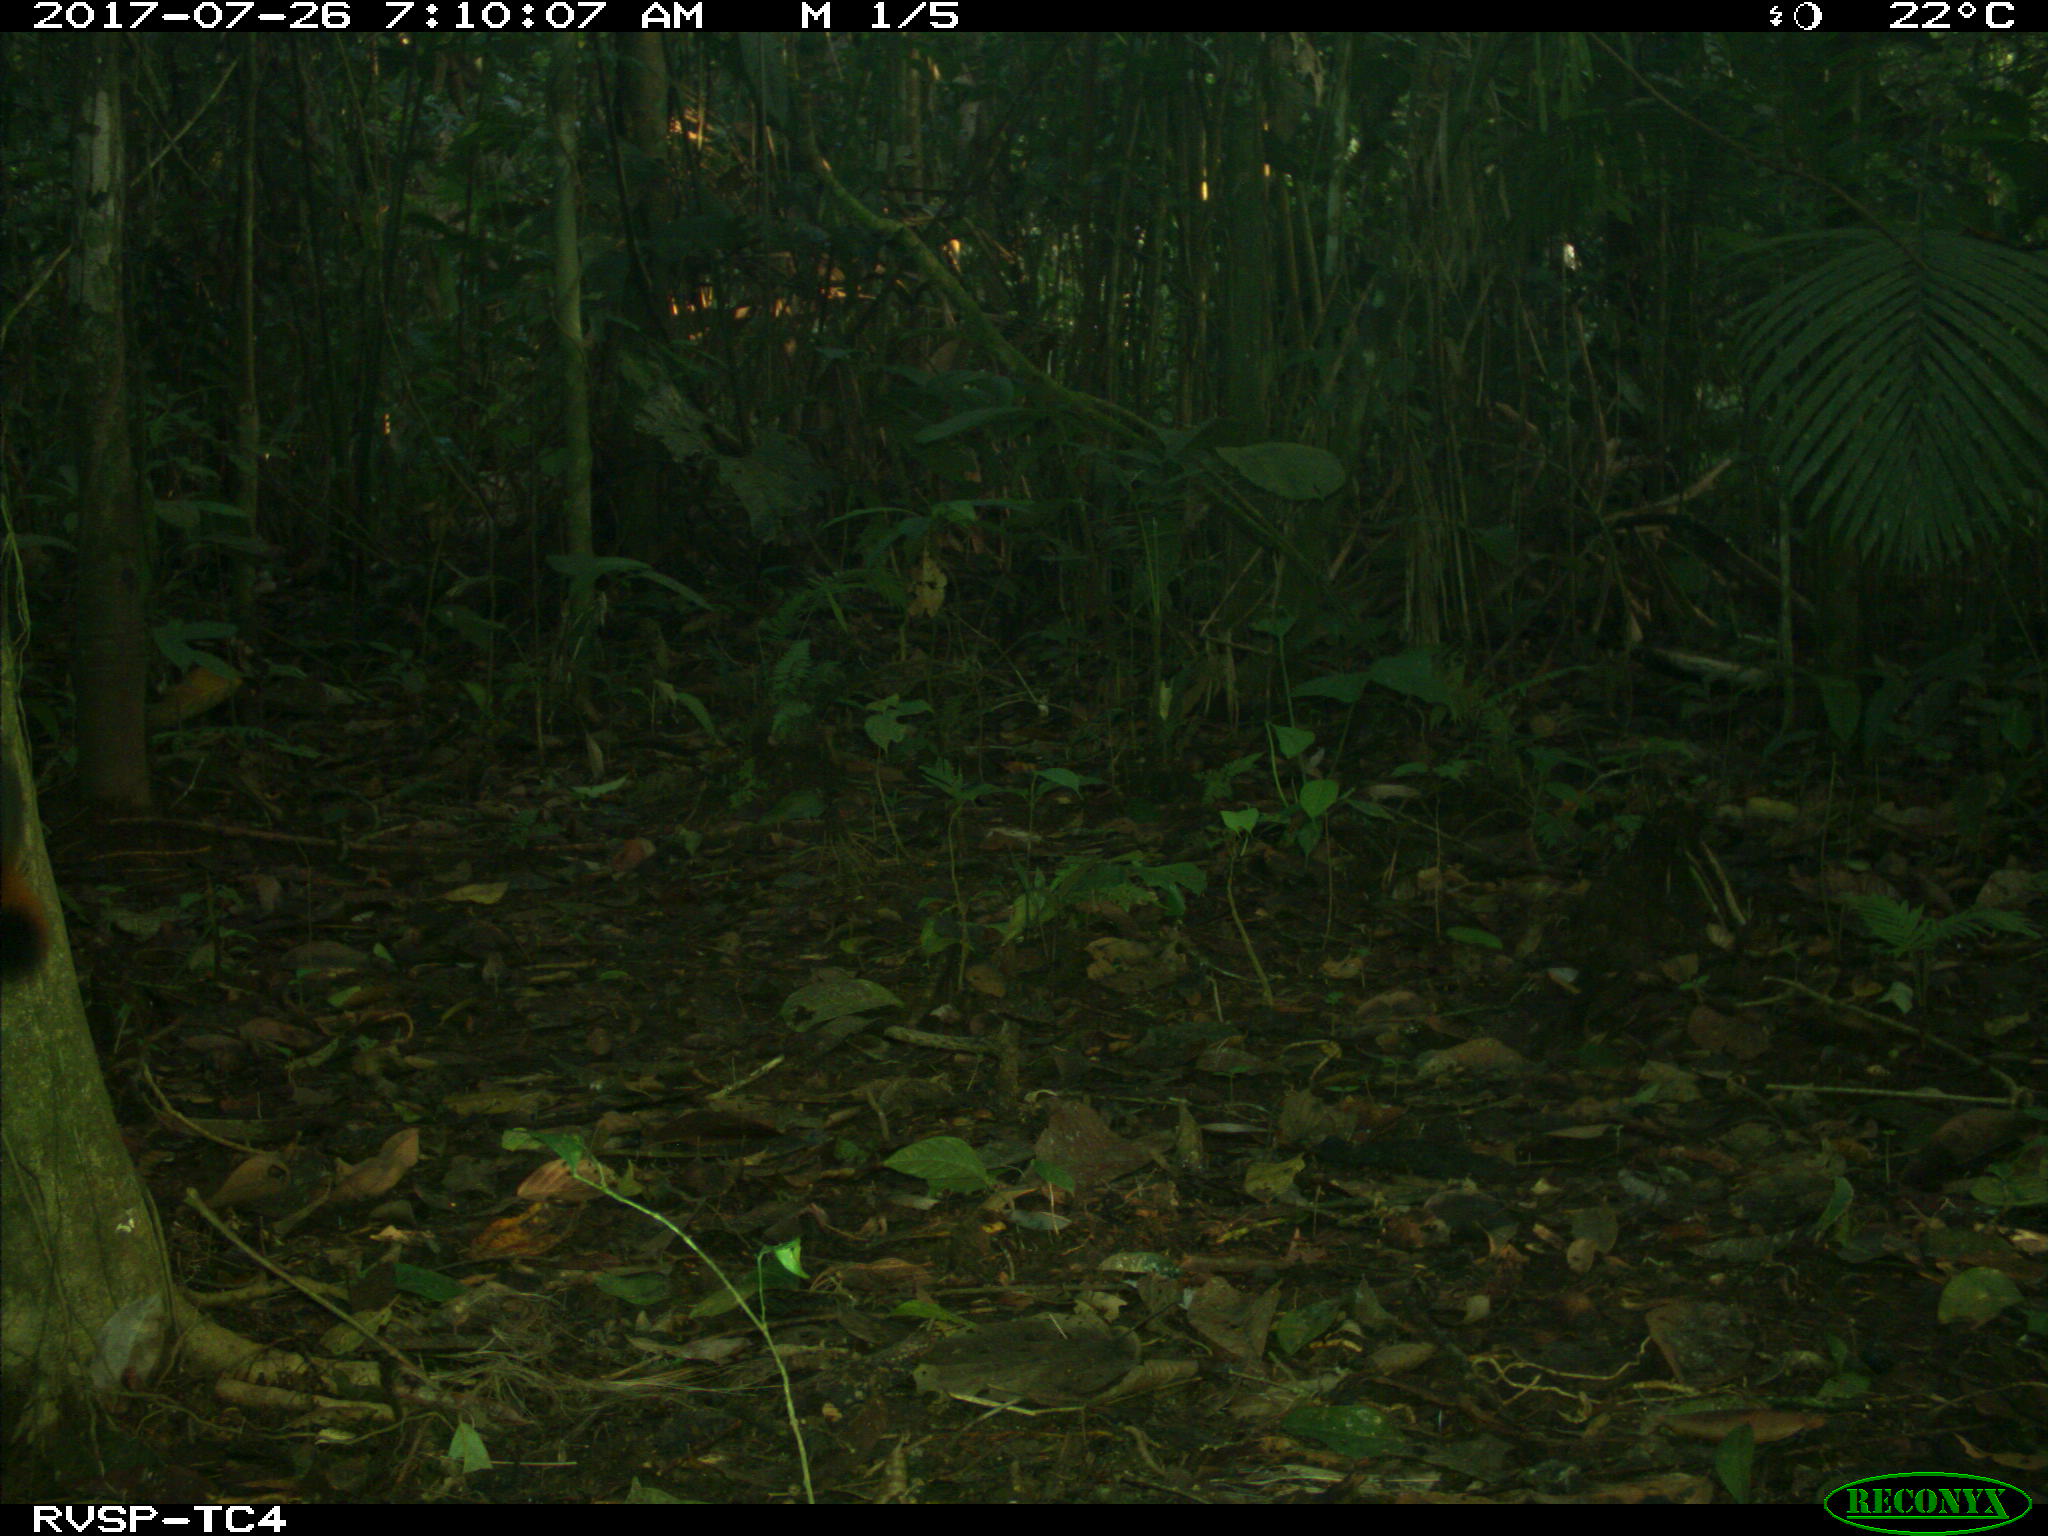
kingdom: Animalia
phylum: Chordata
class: Mammalia
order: Rodentia
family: Sciuridae
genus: Sciurus
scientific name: Sciurus granatensis
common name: Red-tailed squirrel
